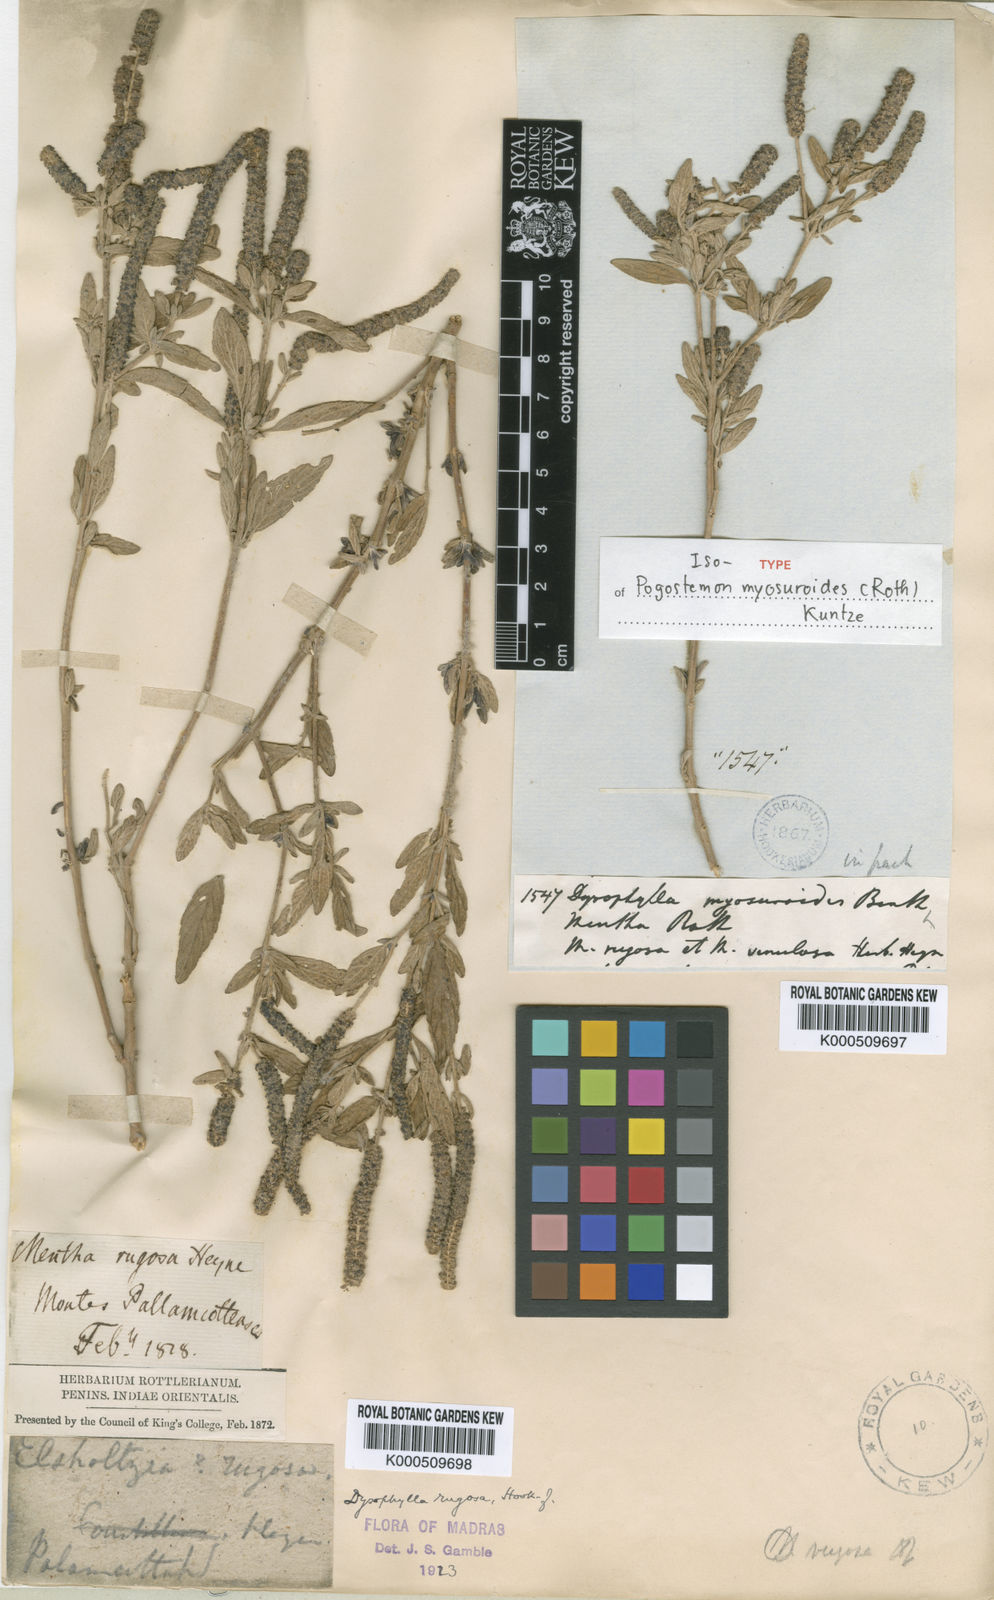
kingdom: Plantae
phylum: Tracheophyta
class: Magnoliopsida
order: Lamiales
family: Lamiaceae
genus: Pogostemon
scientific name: Pogostemon myosuroides
